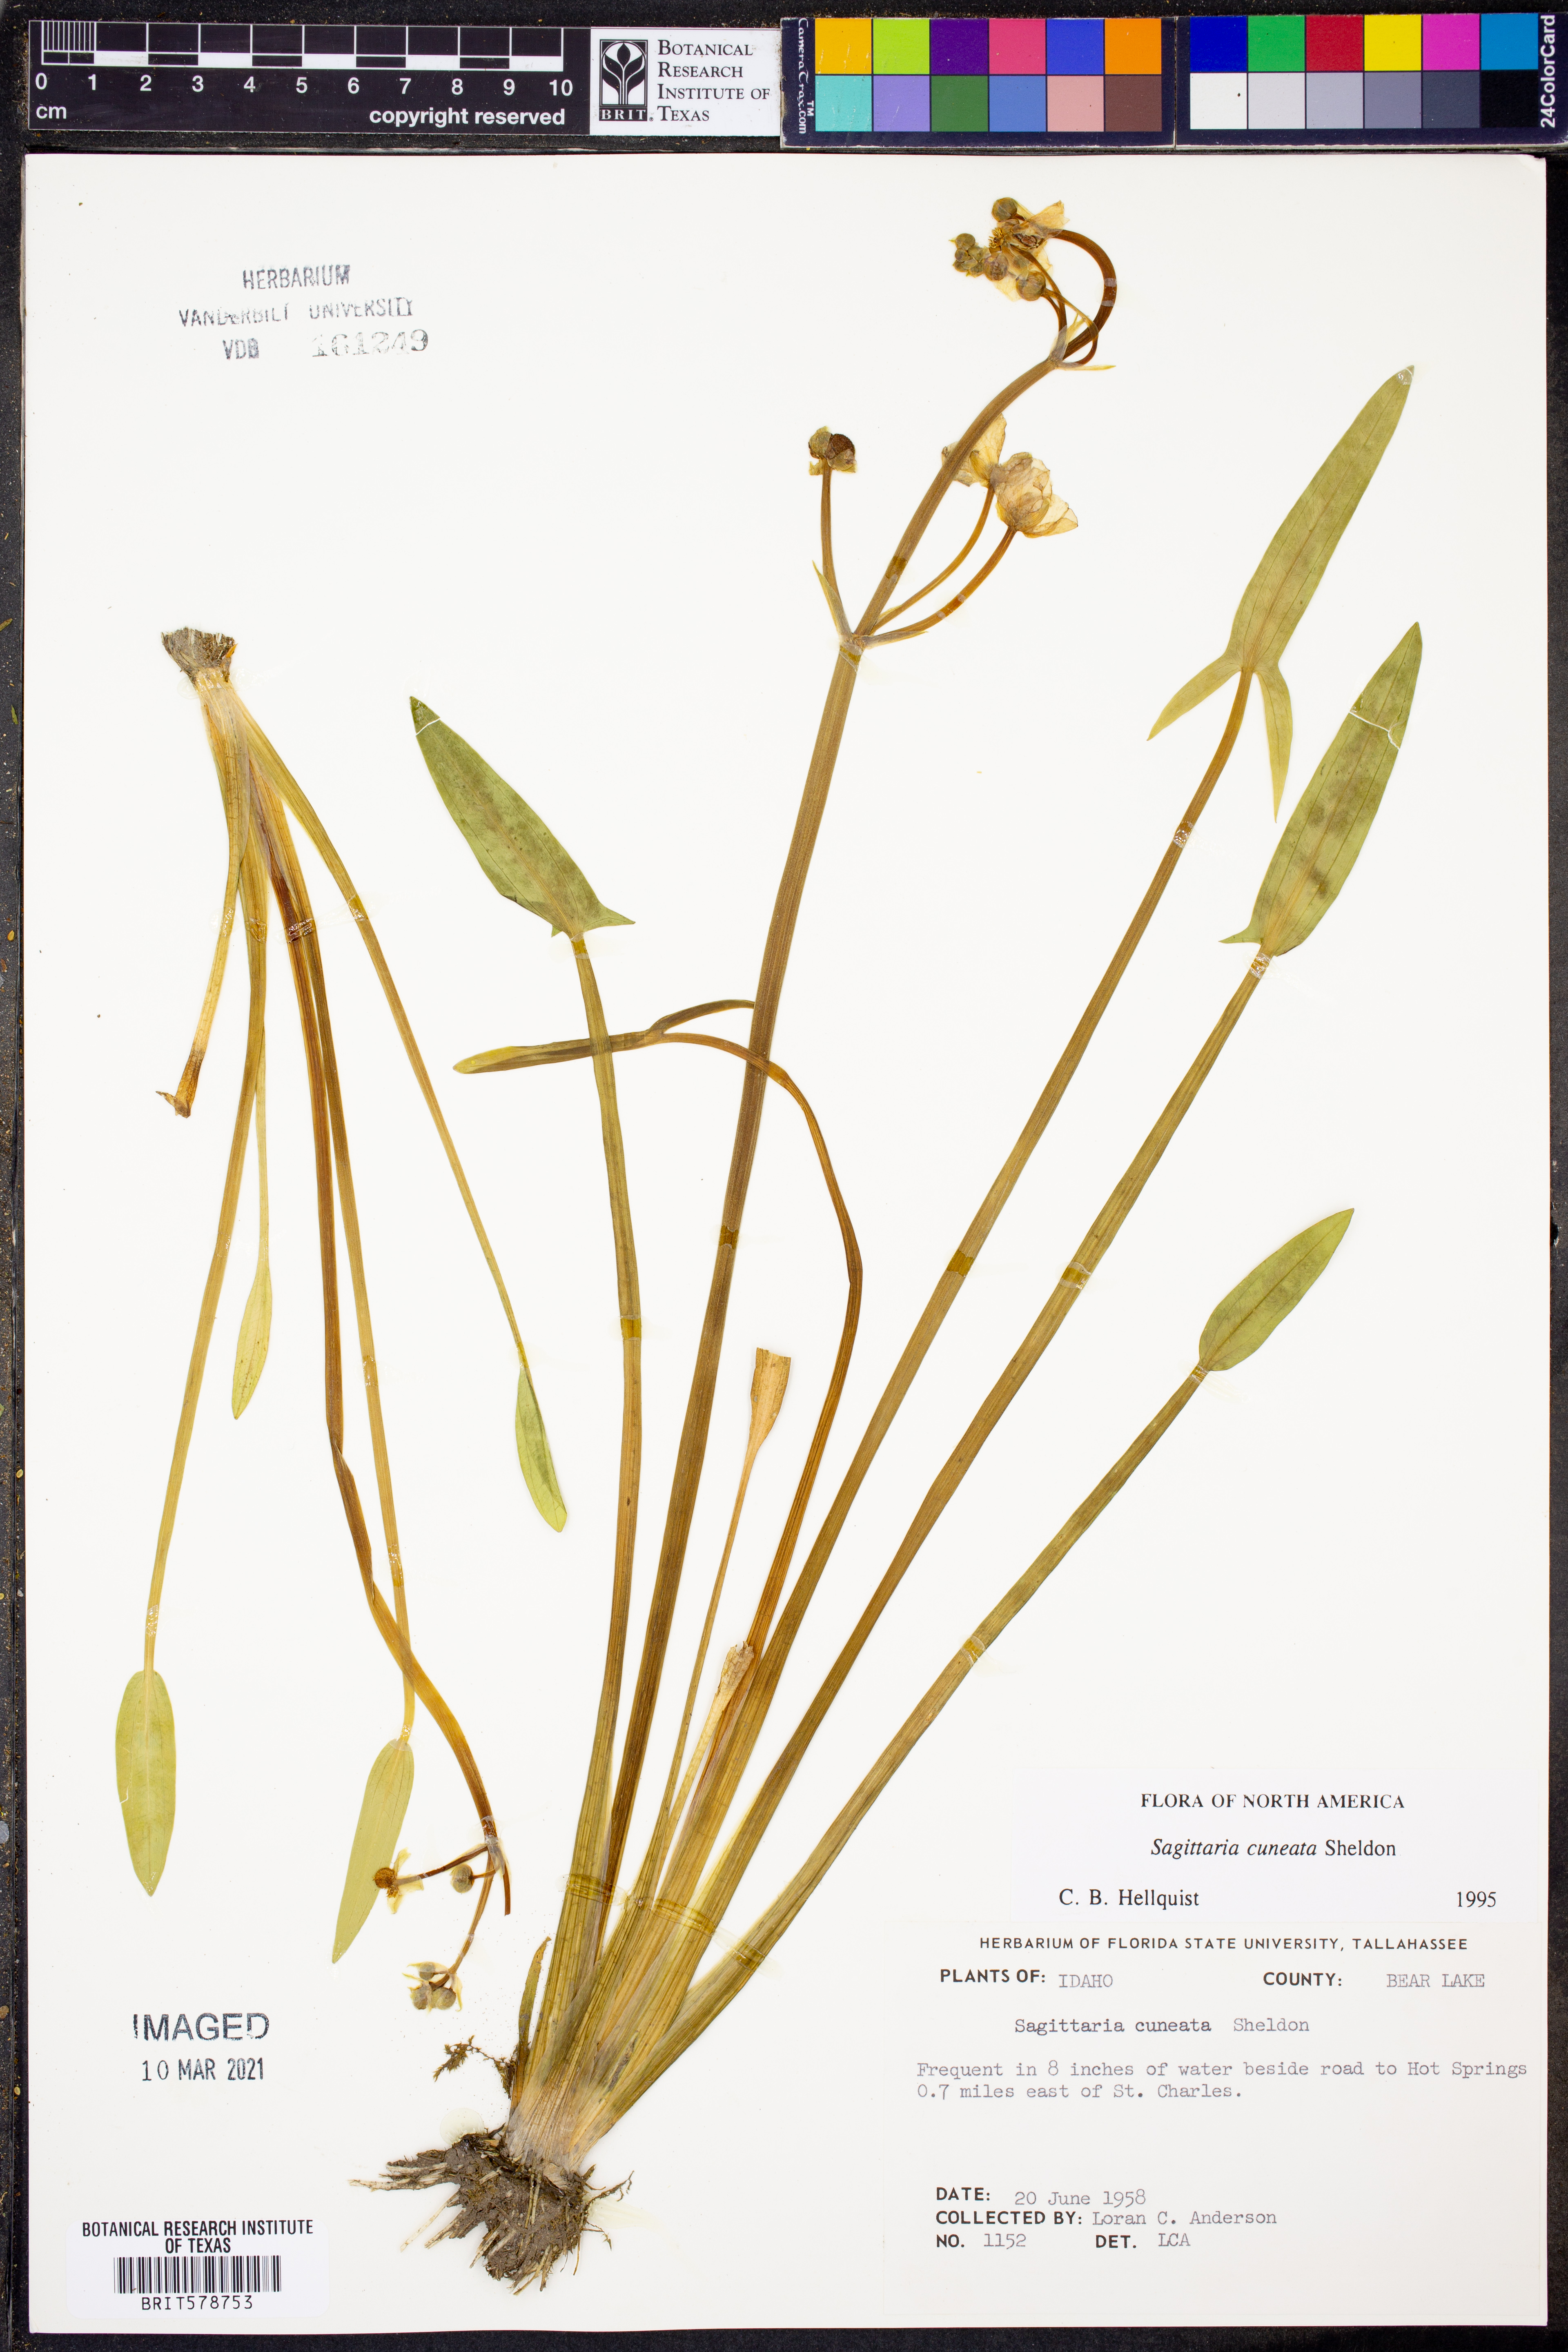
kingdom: Plantae
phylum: Tracheophyta
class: Liliopsida
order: Alismatales
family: Alismataceae
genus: Sagittaria
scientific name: Sagittaria cuneata
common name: Northern arrowhead
